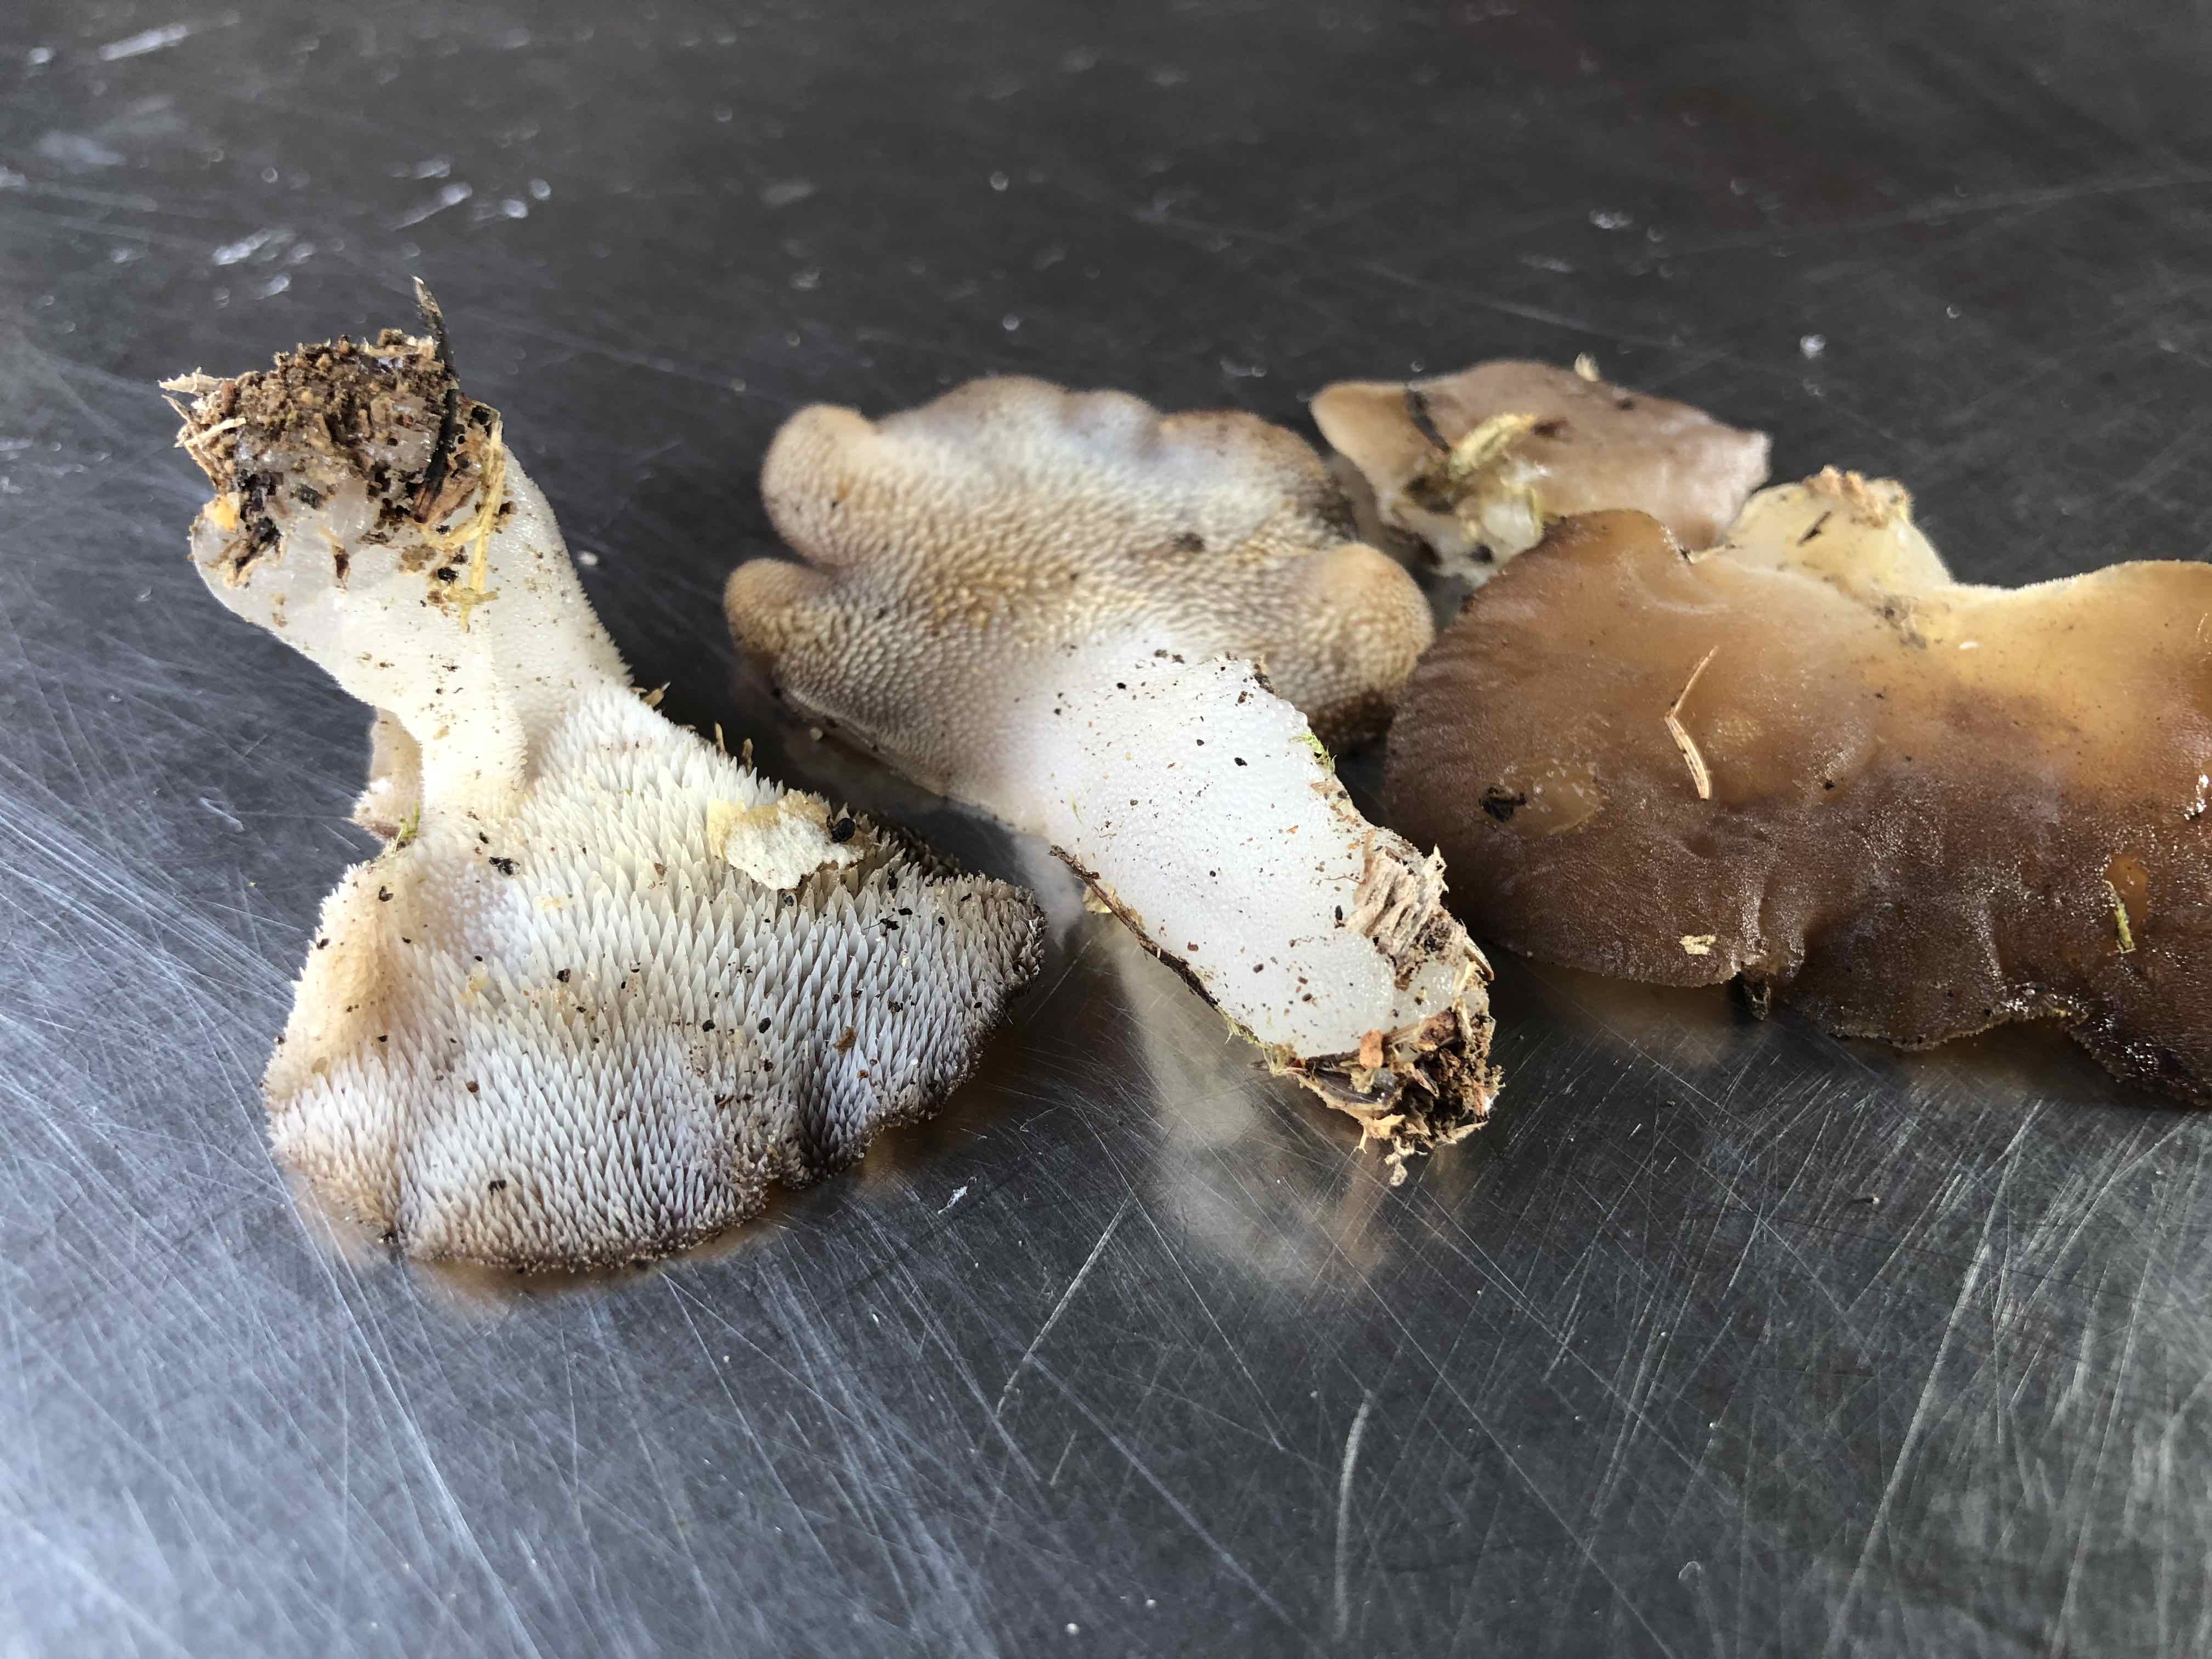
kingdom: Fungi
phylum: Basidiomycota
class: Agaricomycetes
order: Auriculariales
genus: Pseudohydnum
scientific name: Pseudohydnum gelatinosum
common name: bævretand
